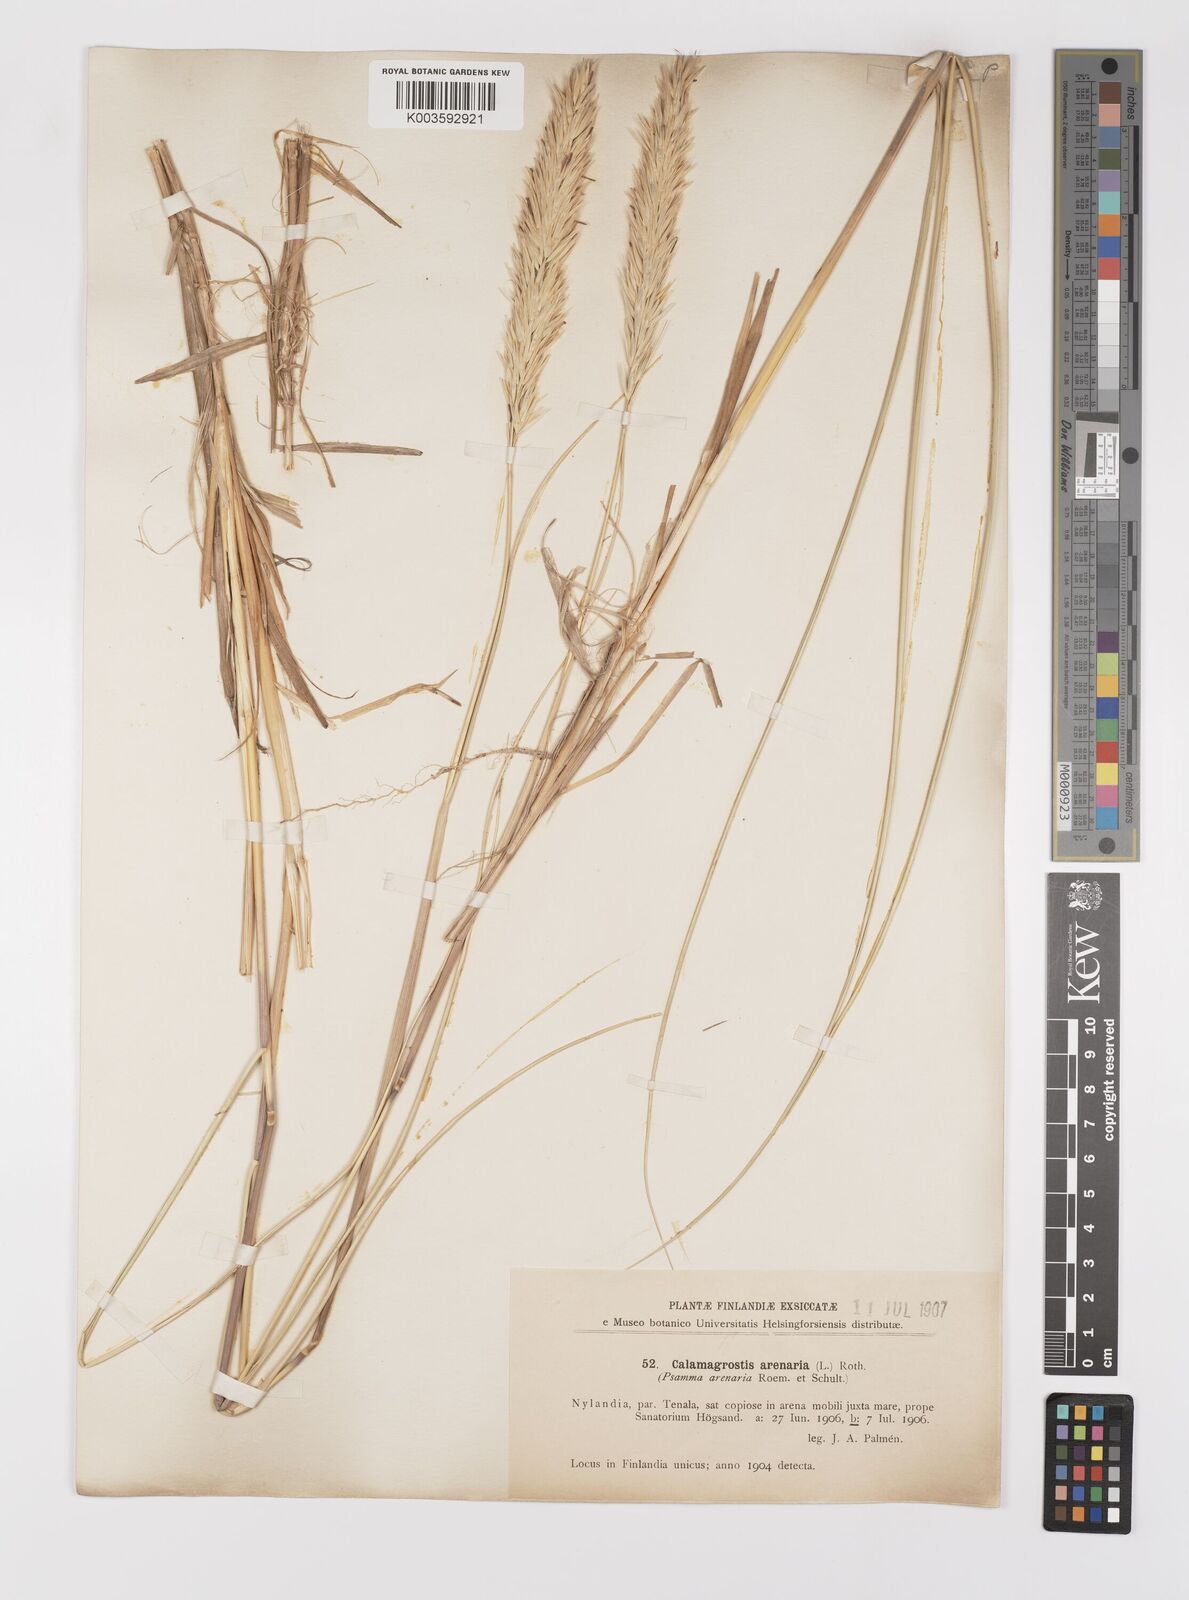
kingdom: Plantae
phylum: Tracheophyta
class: Liliopsida
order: Poales
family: Poaceae
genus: Calamagrostis
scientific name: Calamagrostis arenaria
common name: European beachgrass
